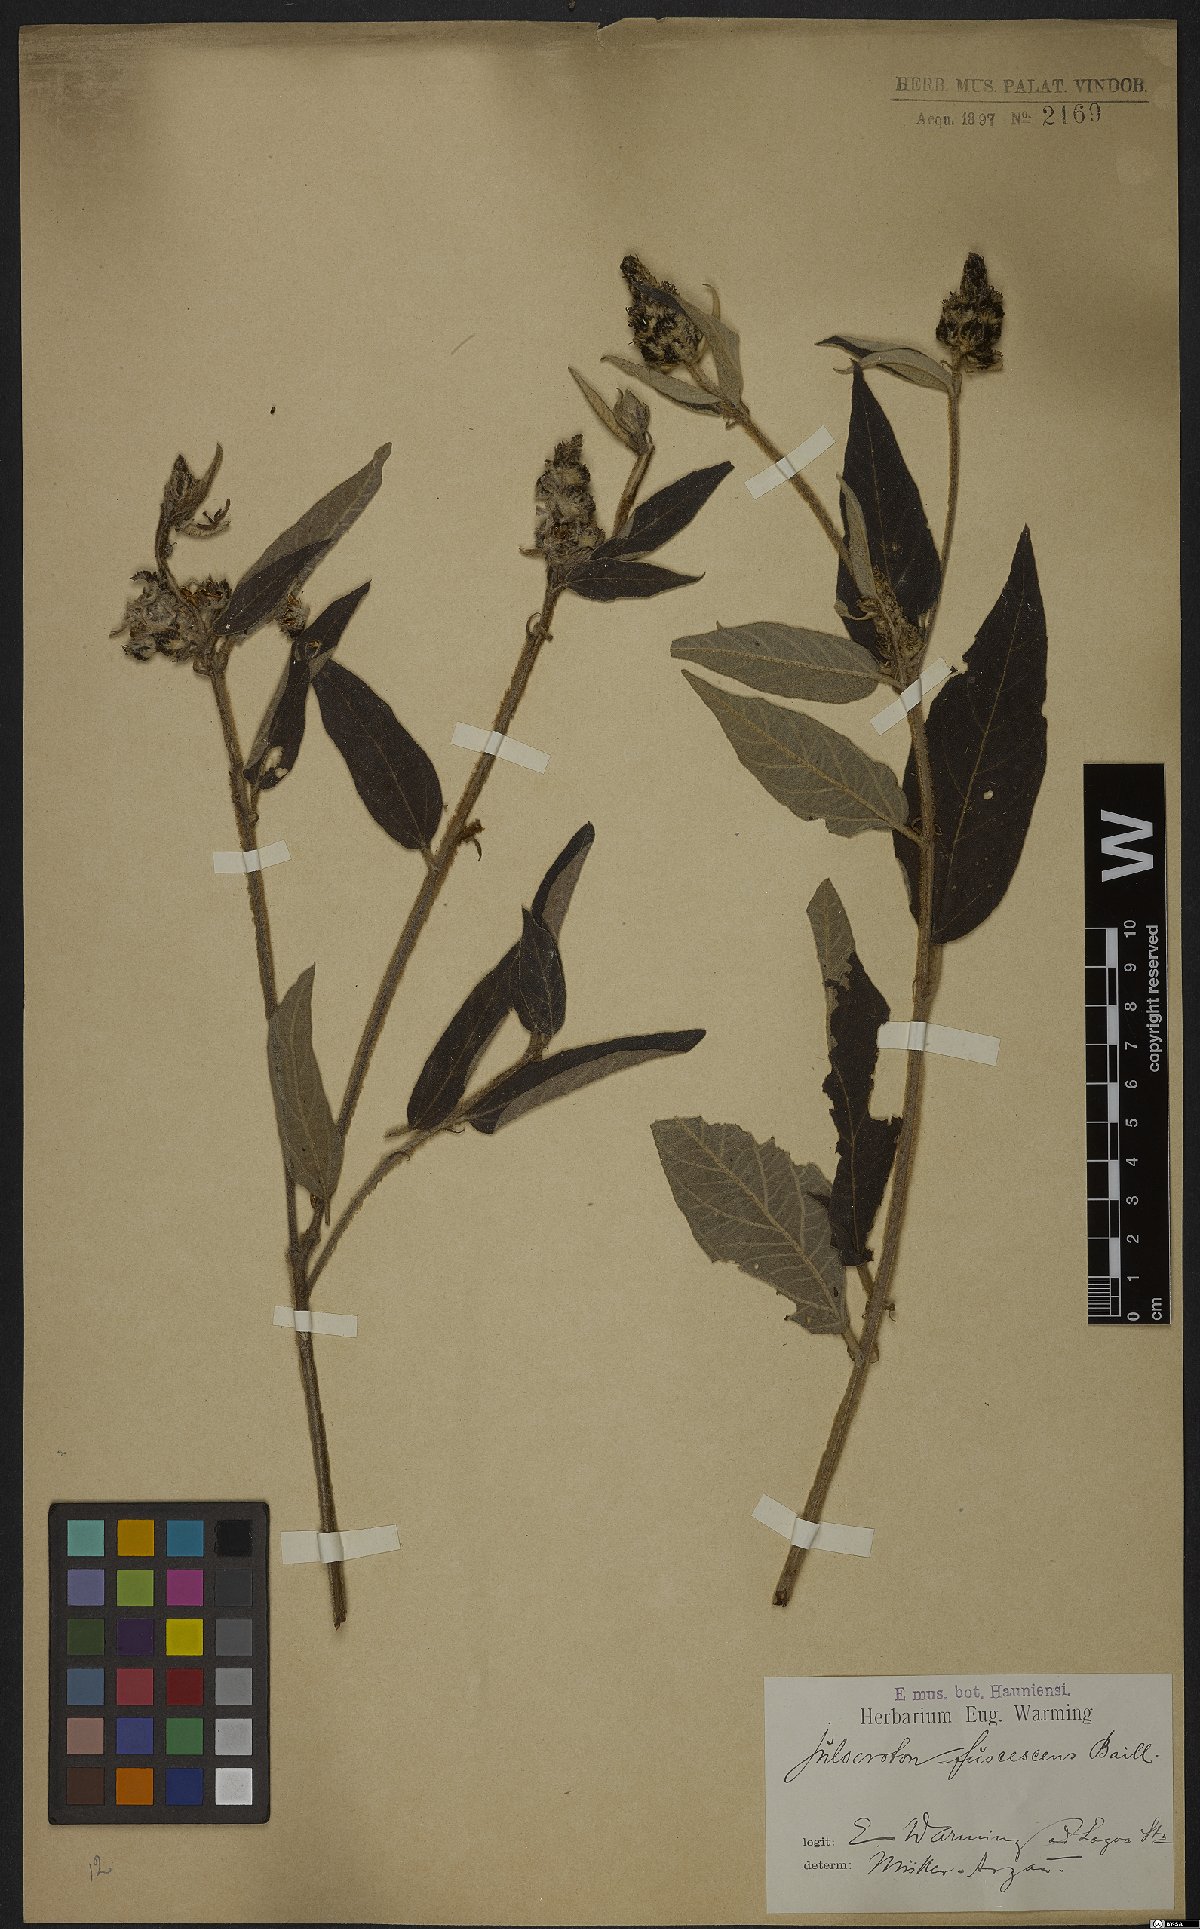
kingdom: Plantae
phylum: Tracheophyta
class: Magnoliopsida
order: Malpighiales
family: Euphorbiaceae
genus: Croton
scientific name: Croton gnaphaloides
